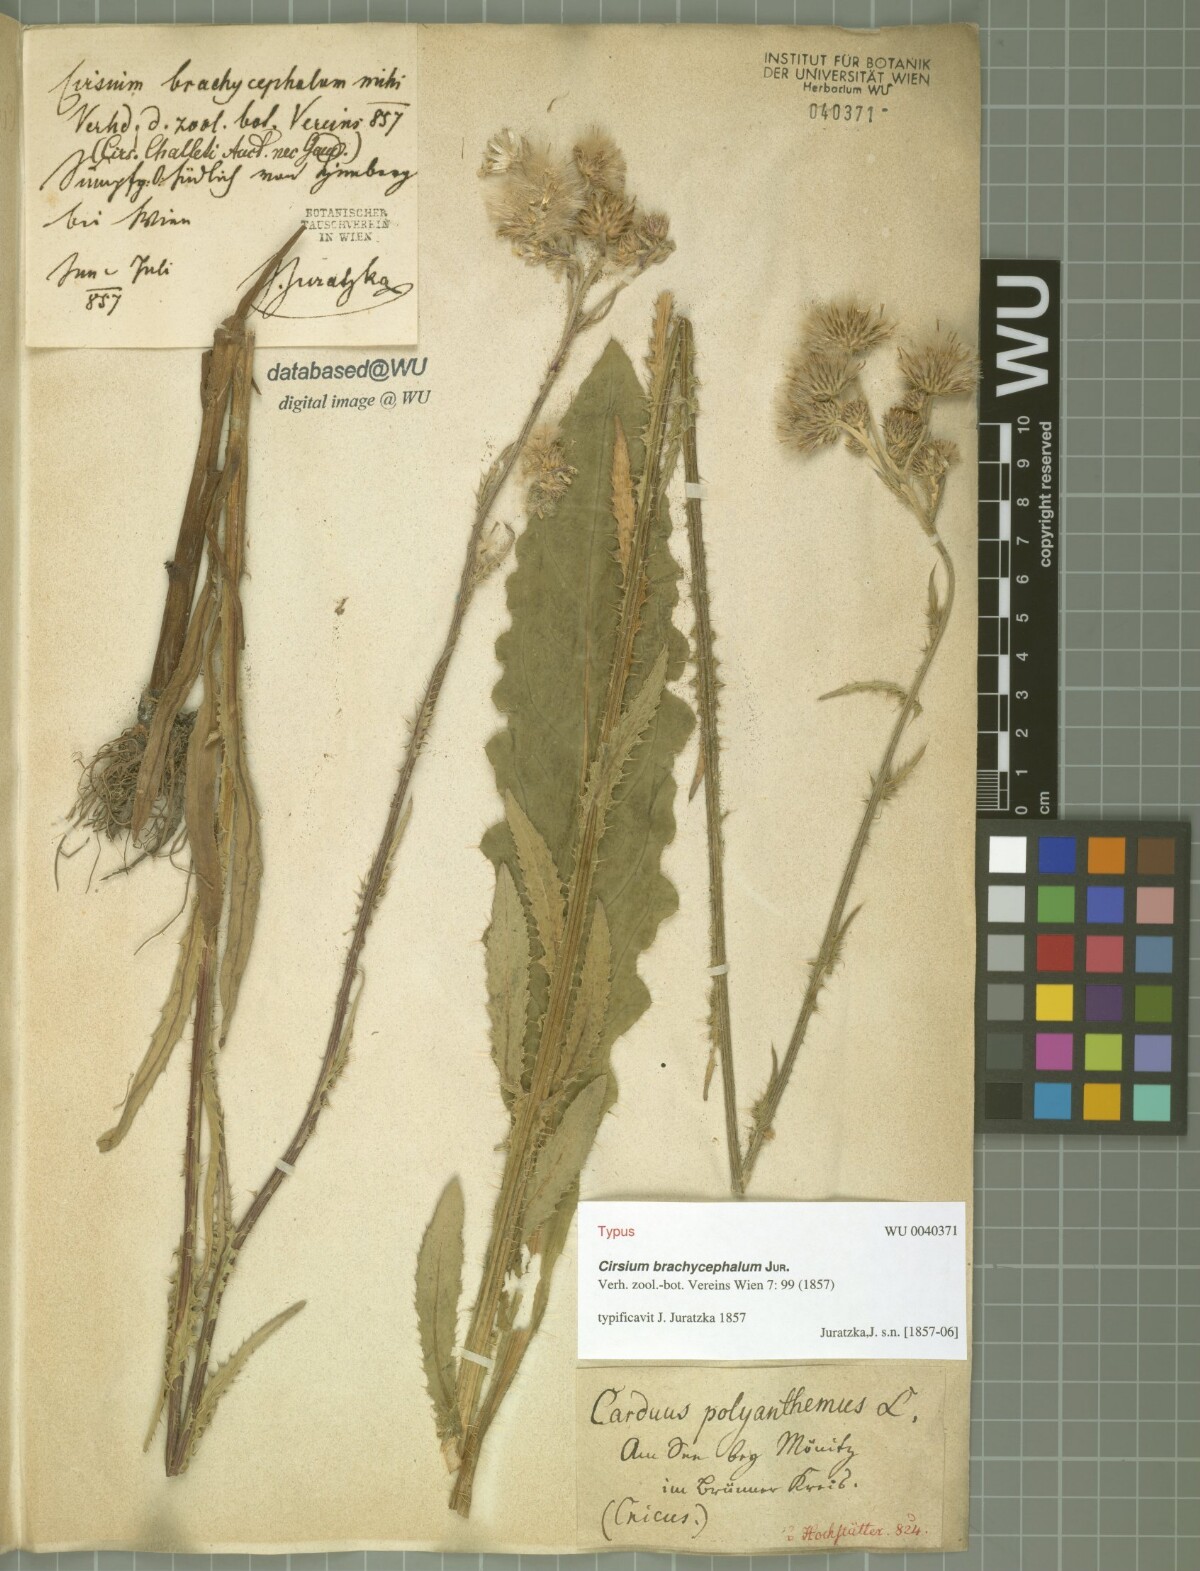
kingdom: Plantae
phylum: Tracheophyta
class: Magnoliopsida
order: Asterales
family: Asteraceae
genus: Cirsium
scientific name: Cirsium brachycephalum
